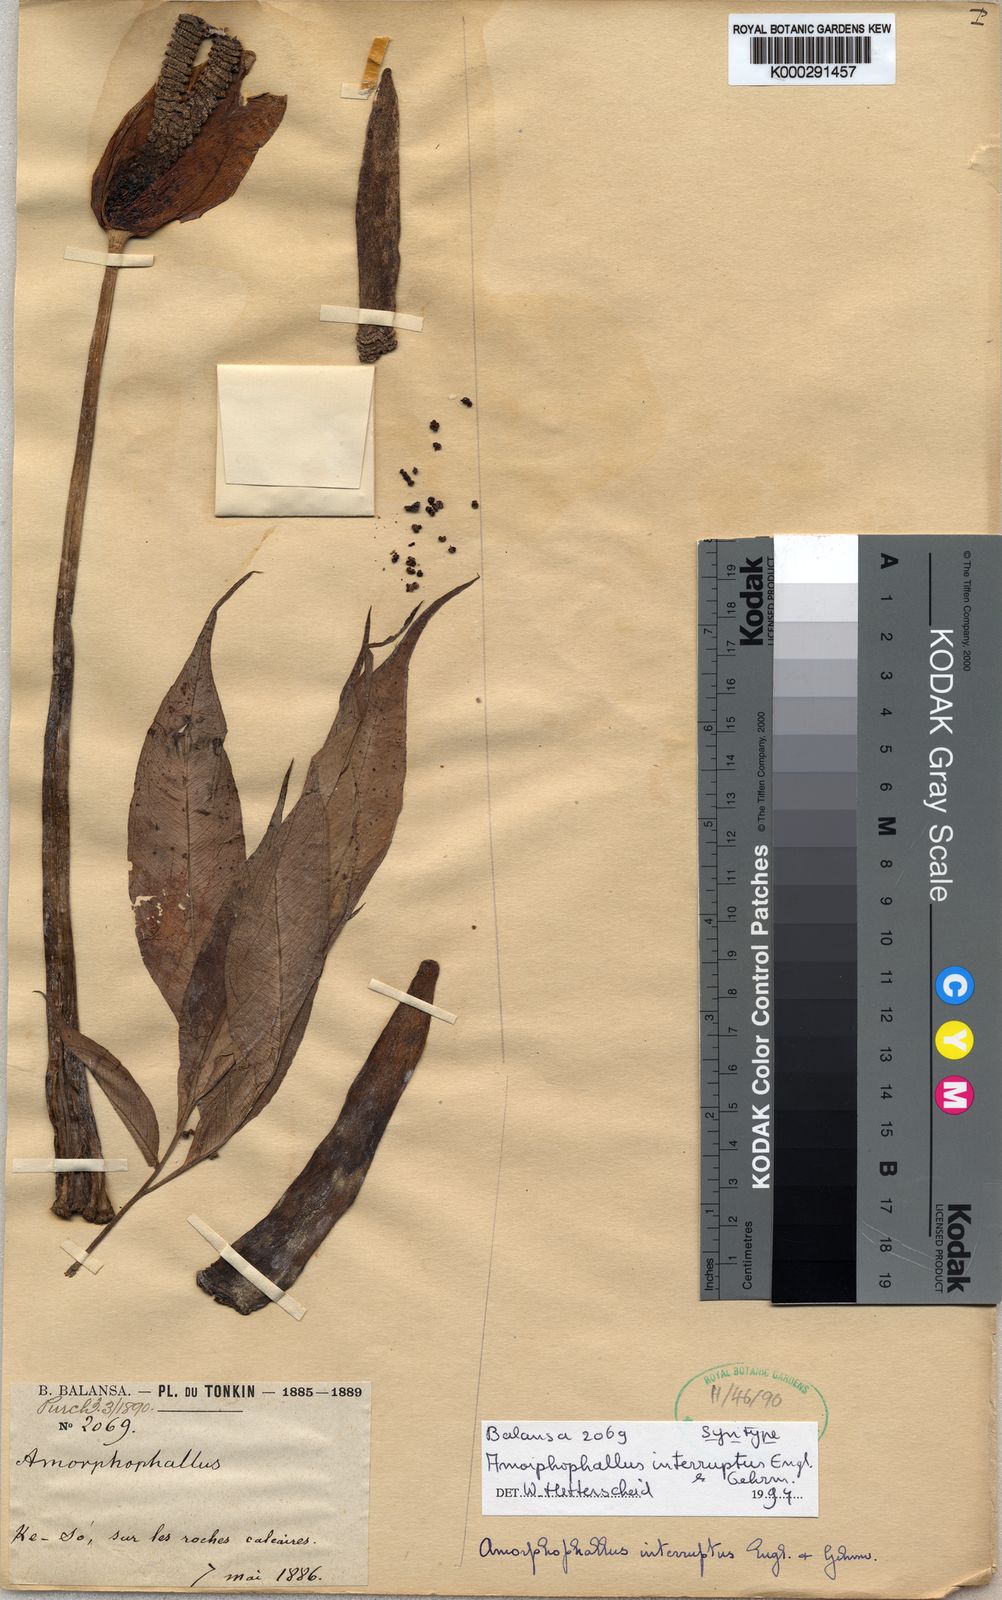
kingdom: Plantae
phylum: Tracheophyta
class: Liliopsida
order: Alismatales
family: Araceae
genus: Amorphophallus
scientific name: Amorphophallus interruptus
